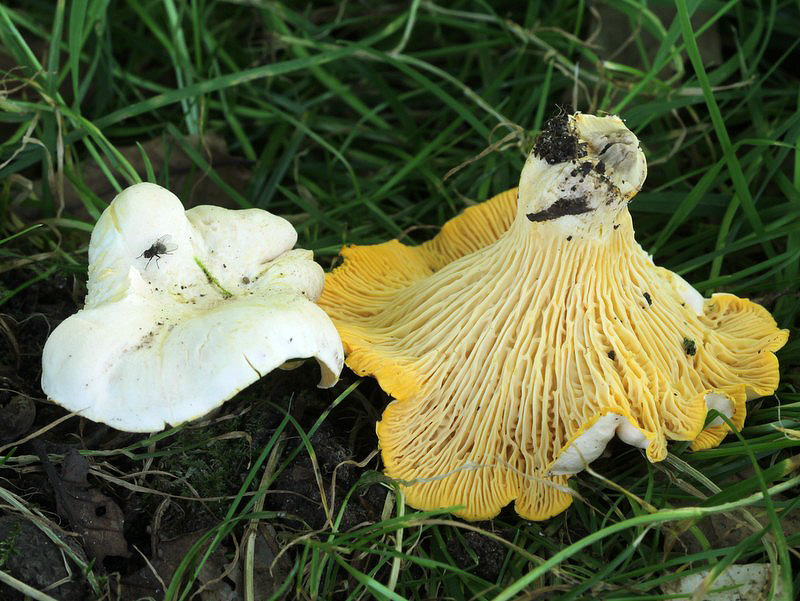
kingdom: Fungi
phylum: Basidiomycota
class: Agaricomycetes
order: Cantharellales
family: Hydnaceae
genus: Cantharellus
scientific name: Cantharellus pallens
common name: bleg kantarel
